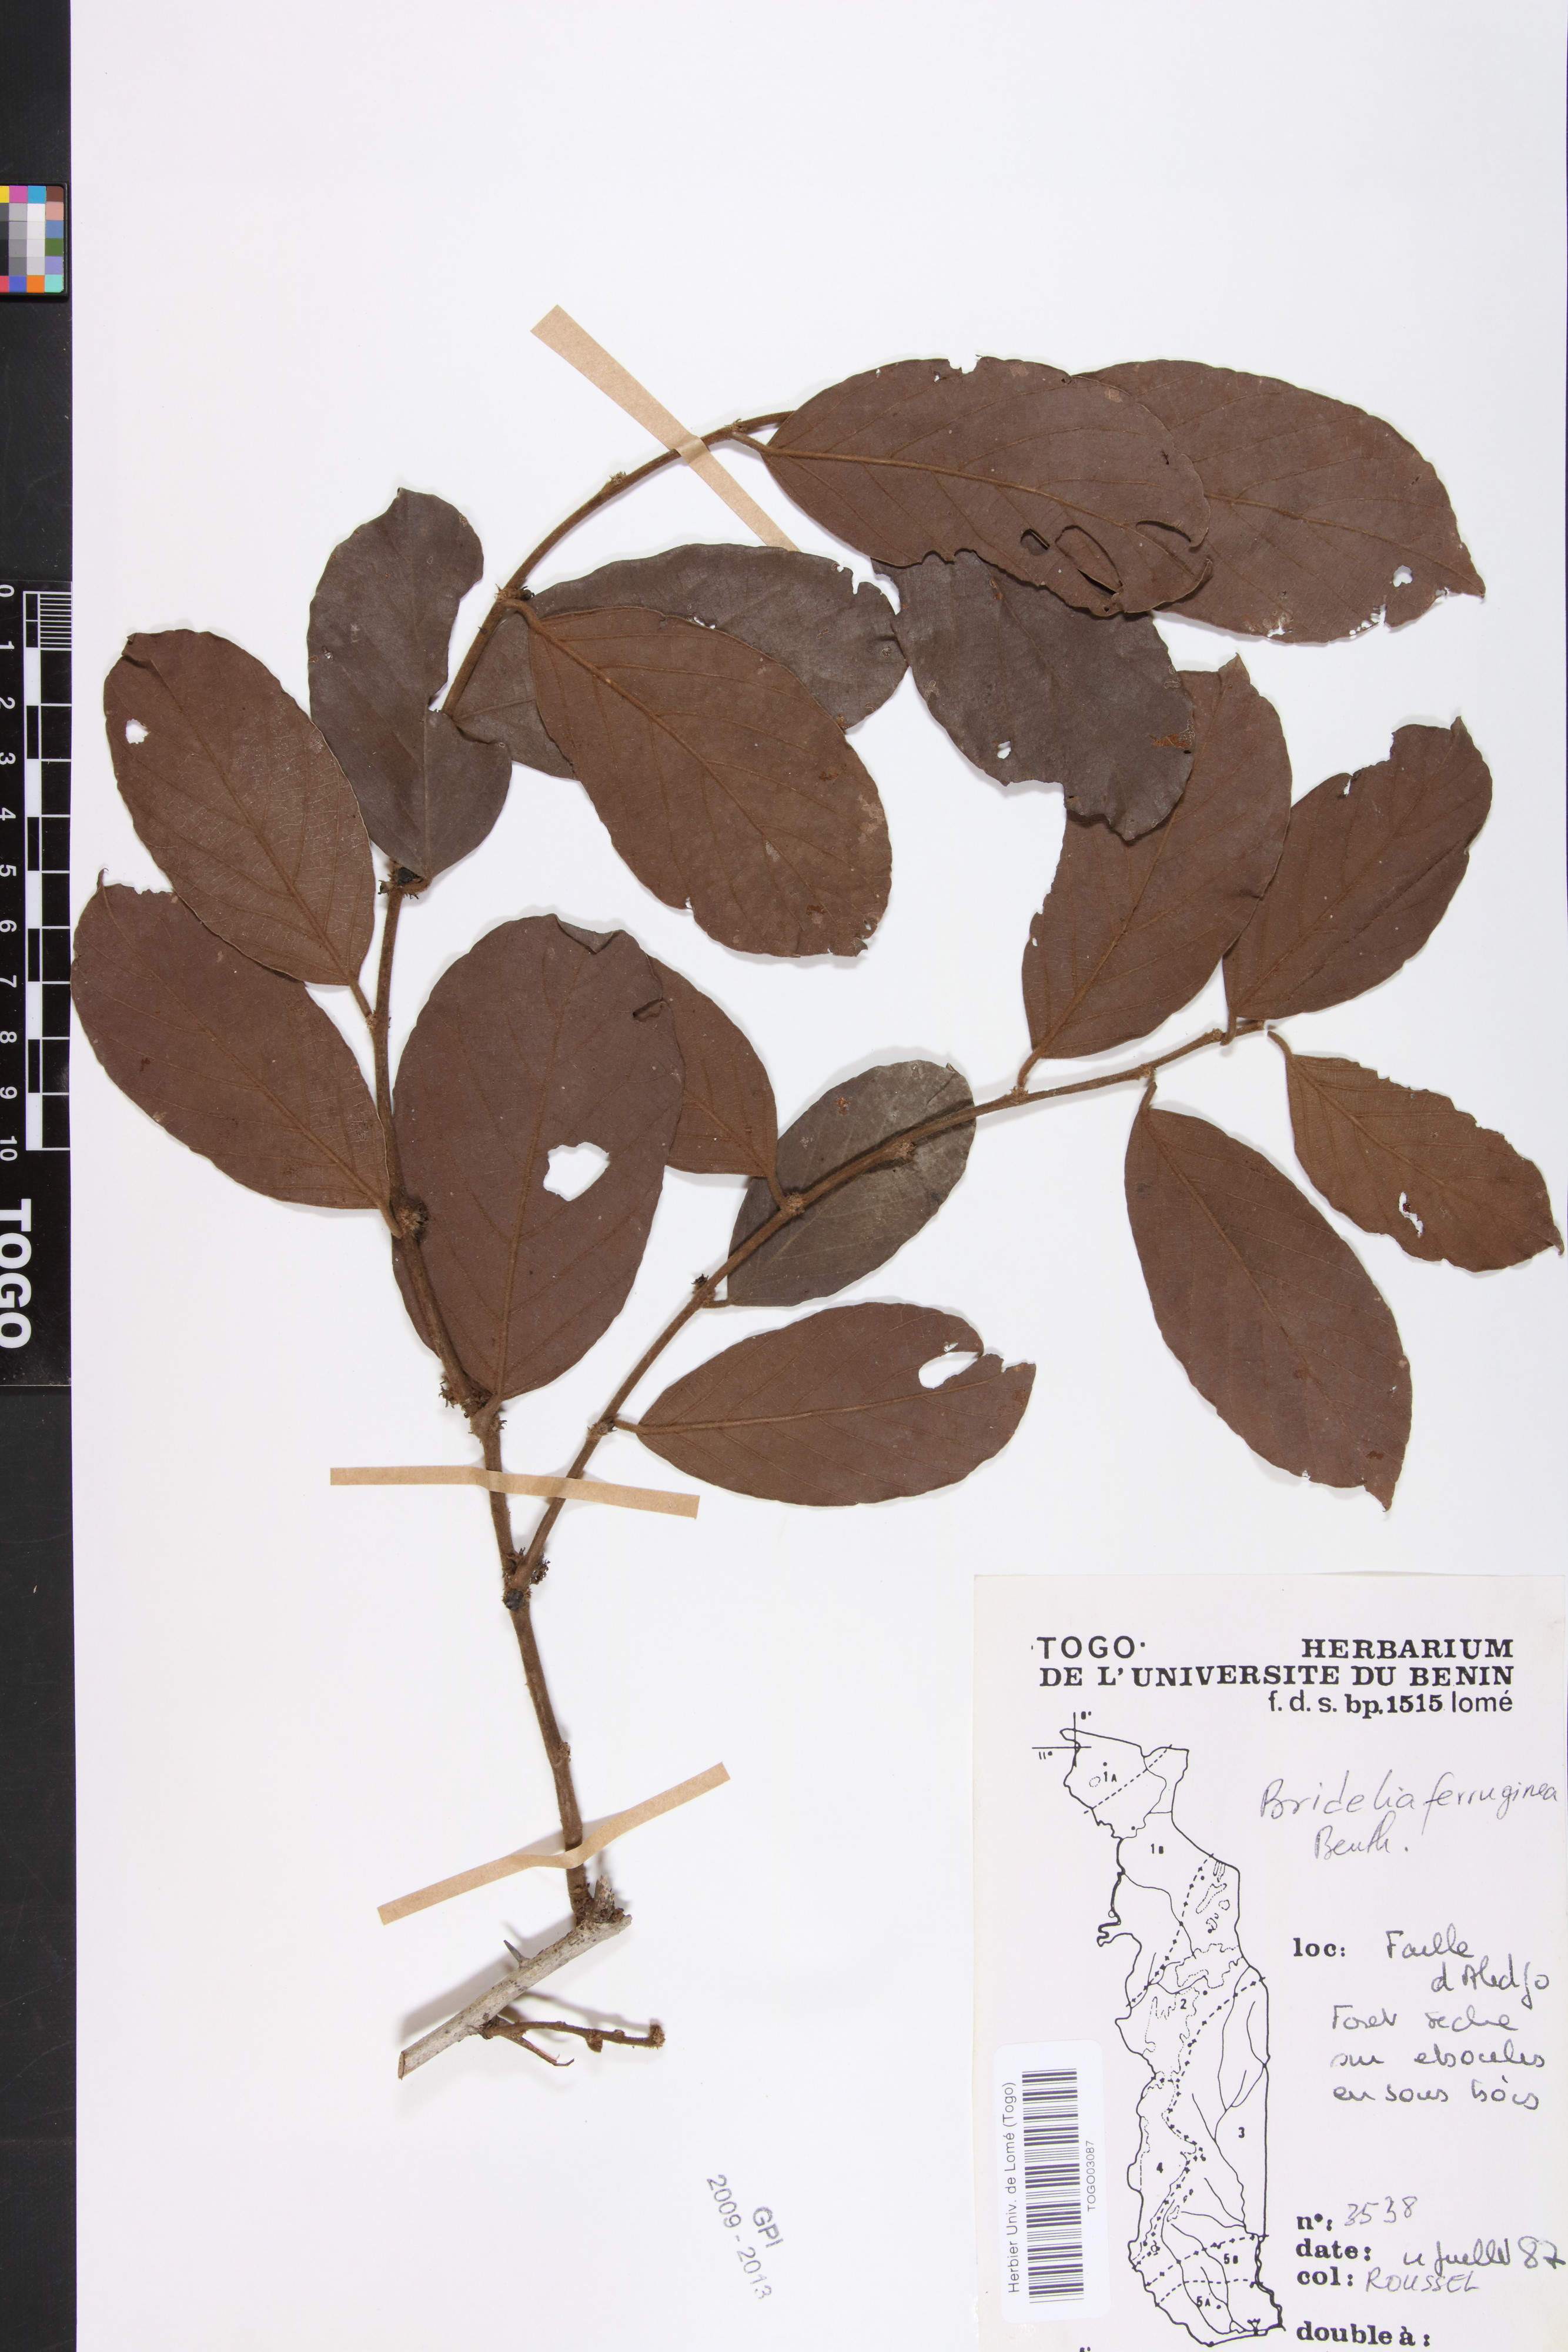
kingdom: Plantae
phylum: Tracheophyta
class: Magnoliopsida
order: Malpighiales
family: Phyllanthaceae
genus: Bridelia
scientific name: Bridelia ferruginea
